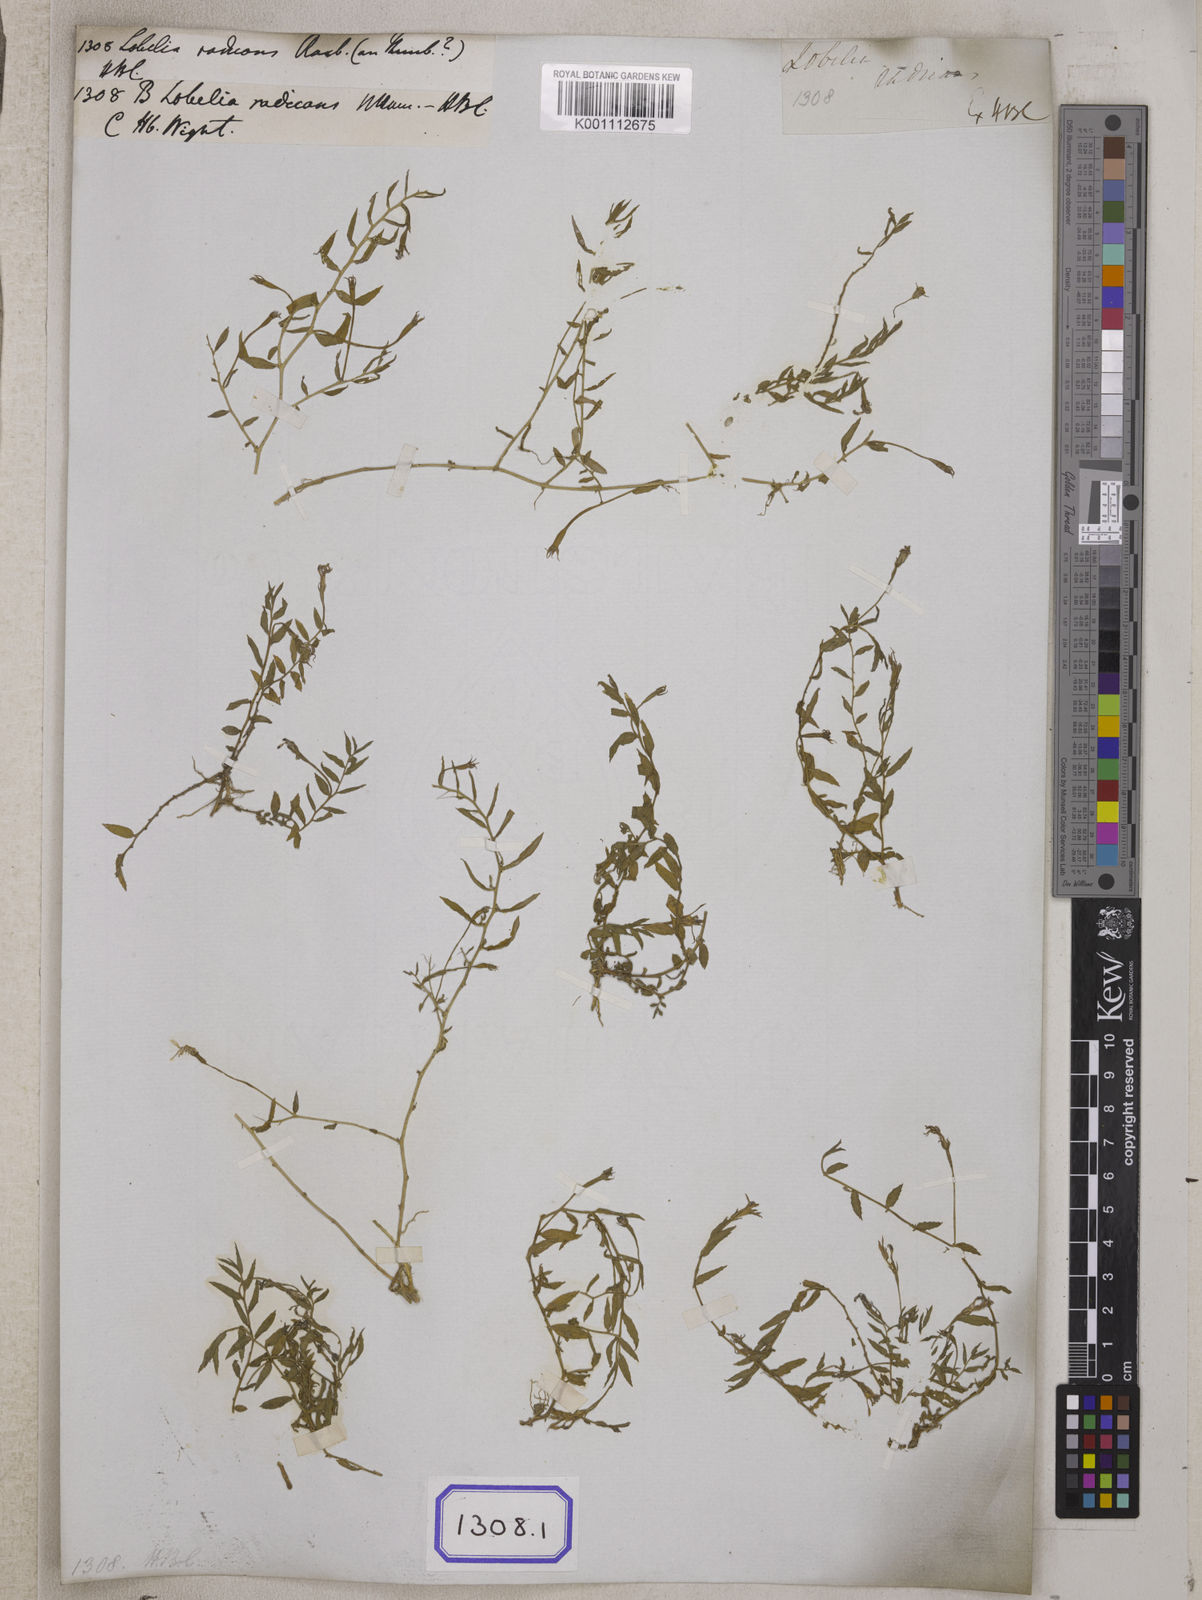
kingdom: Plantae
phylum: Tracheophyta
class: Magnoliopsida
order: Asterales
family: Campanulaceae
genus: Lobelia
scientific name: Lobelia chinensis
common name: Chinese lobelia
